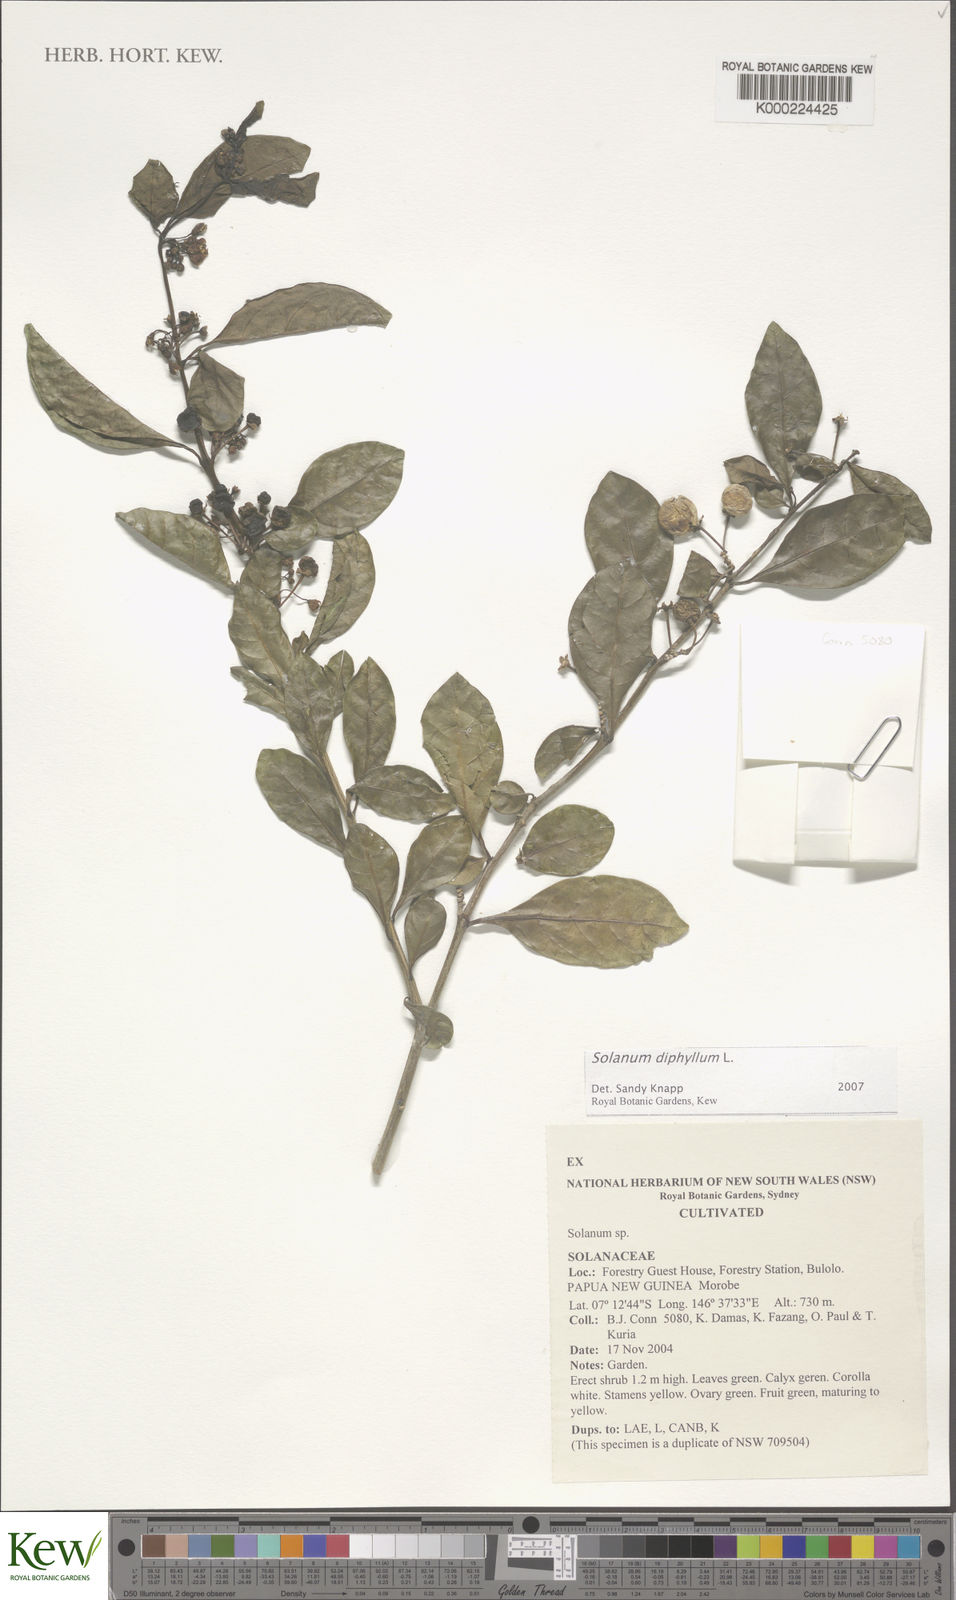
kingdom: Plantae
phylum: Tracheophyta
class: Magnoliopsida
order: Solanales
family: Solanaceae
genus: Solanum
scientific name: Solanum diphyllum
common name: Twoleaf nightshade
